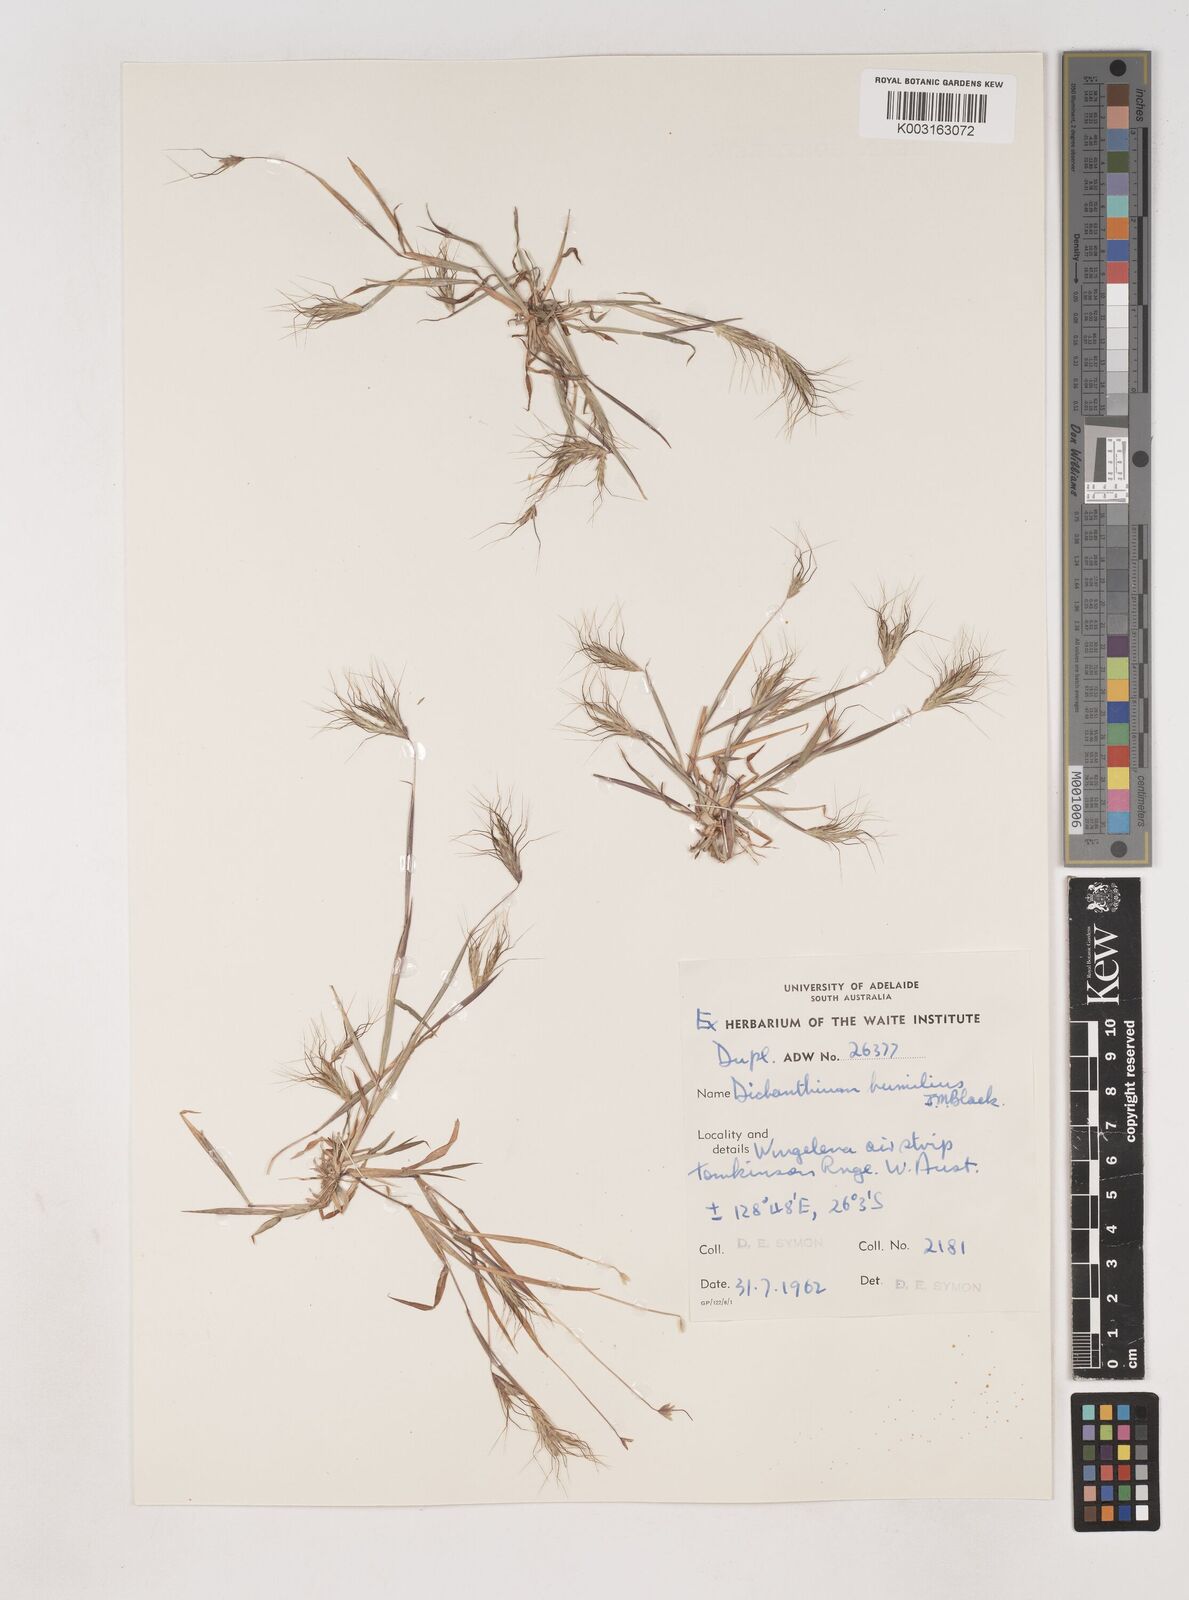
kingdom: Plantae
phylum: Tracheophyta
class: Liliopsida
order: Poales
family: Poaceae
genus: Dichanthium
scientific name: Dichanthium sericeum
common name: Silky bluestem
